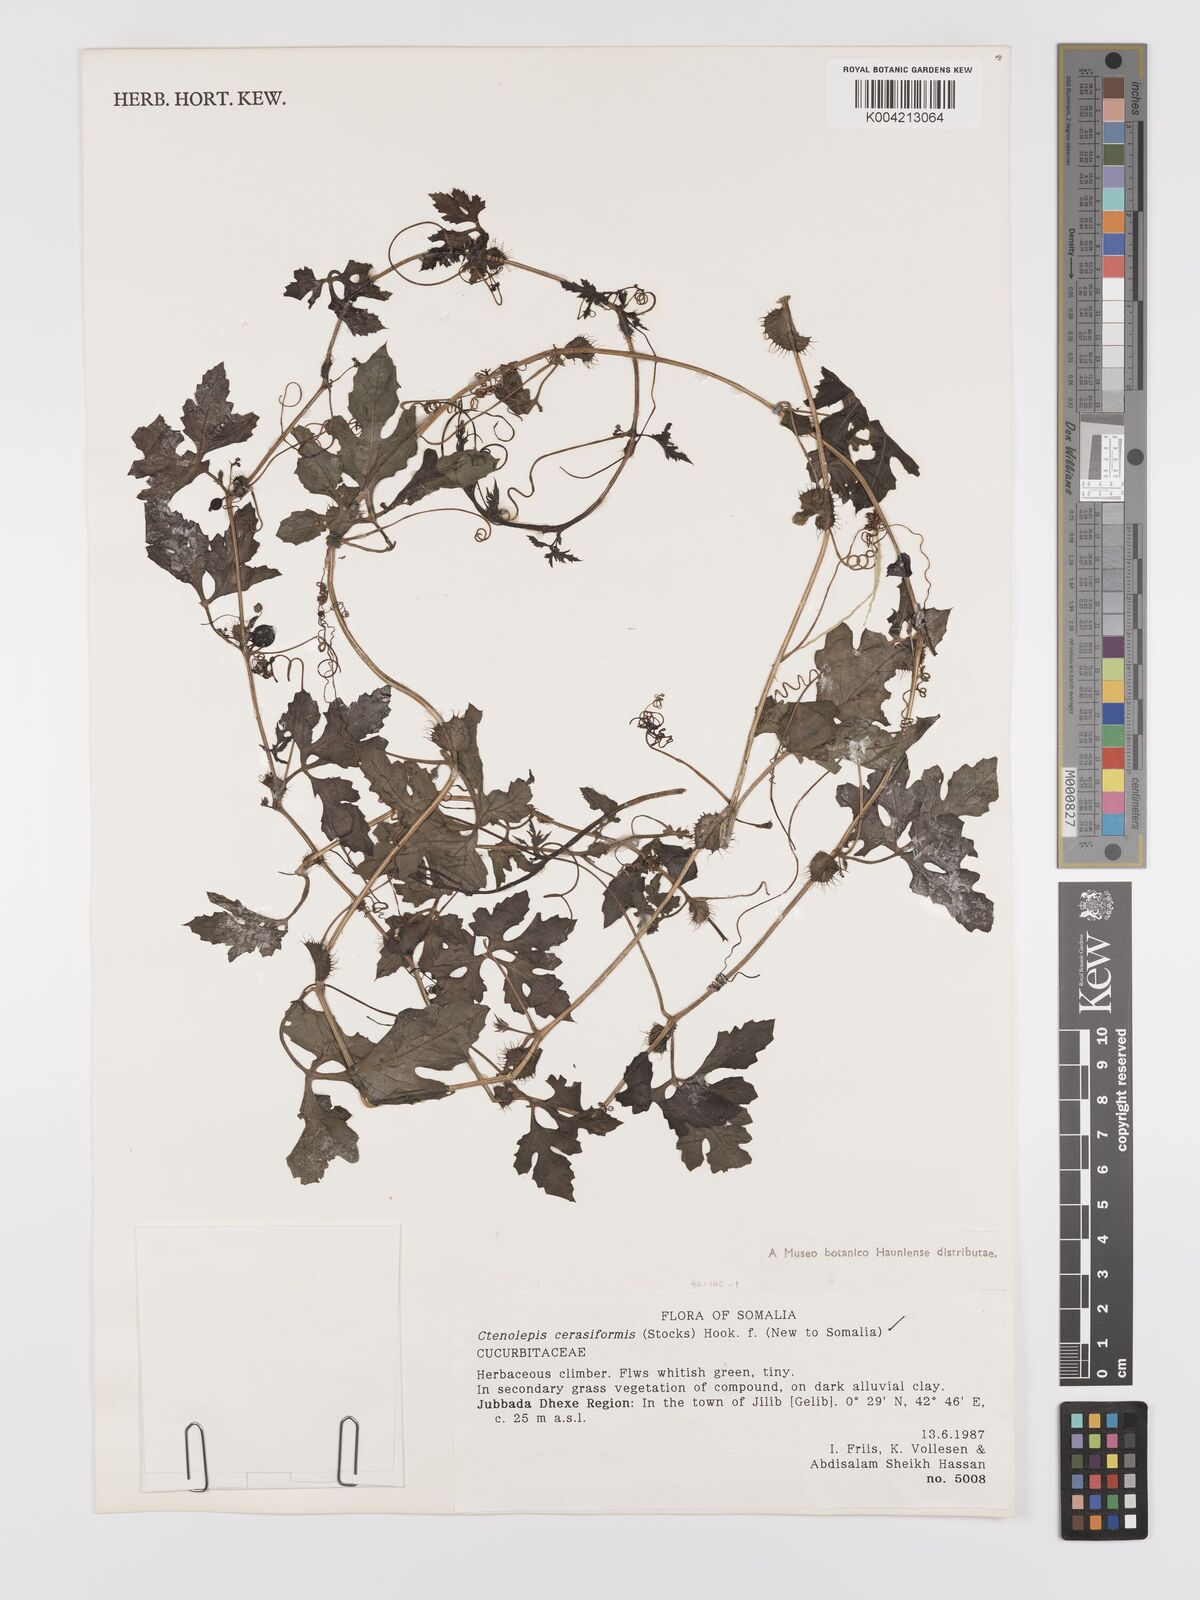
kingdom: Plantae
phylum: Tracheophyta
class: Magnoliopsida
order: Cucurbitales
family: Cucurbitaceae
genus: Blastania
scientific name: Blastania cerasiformis
